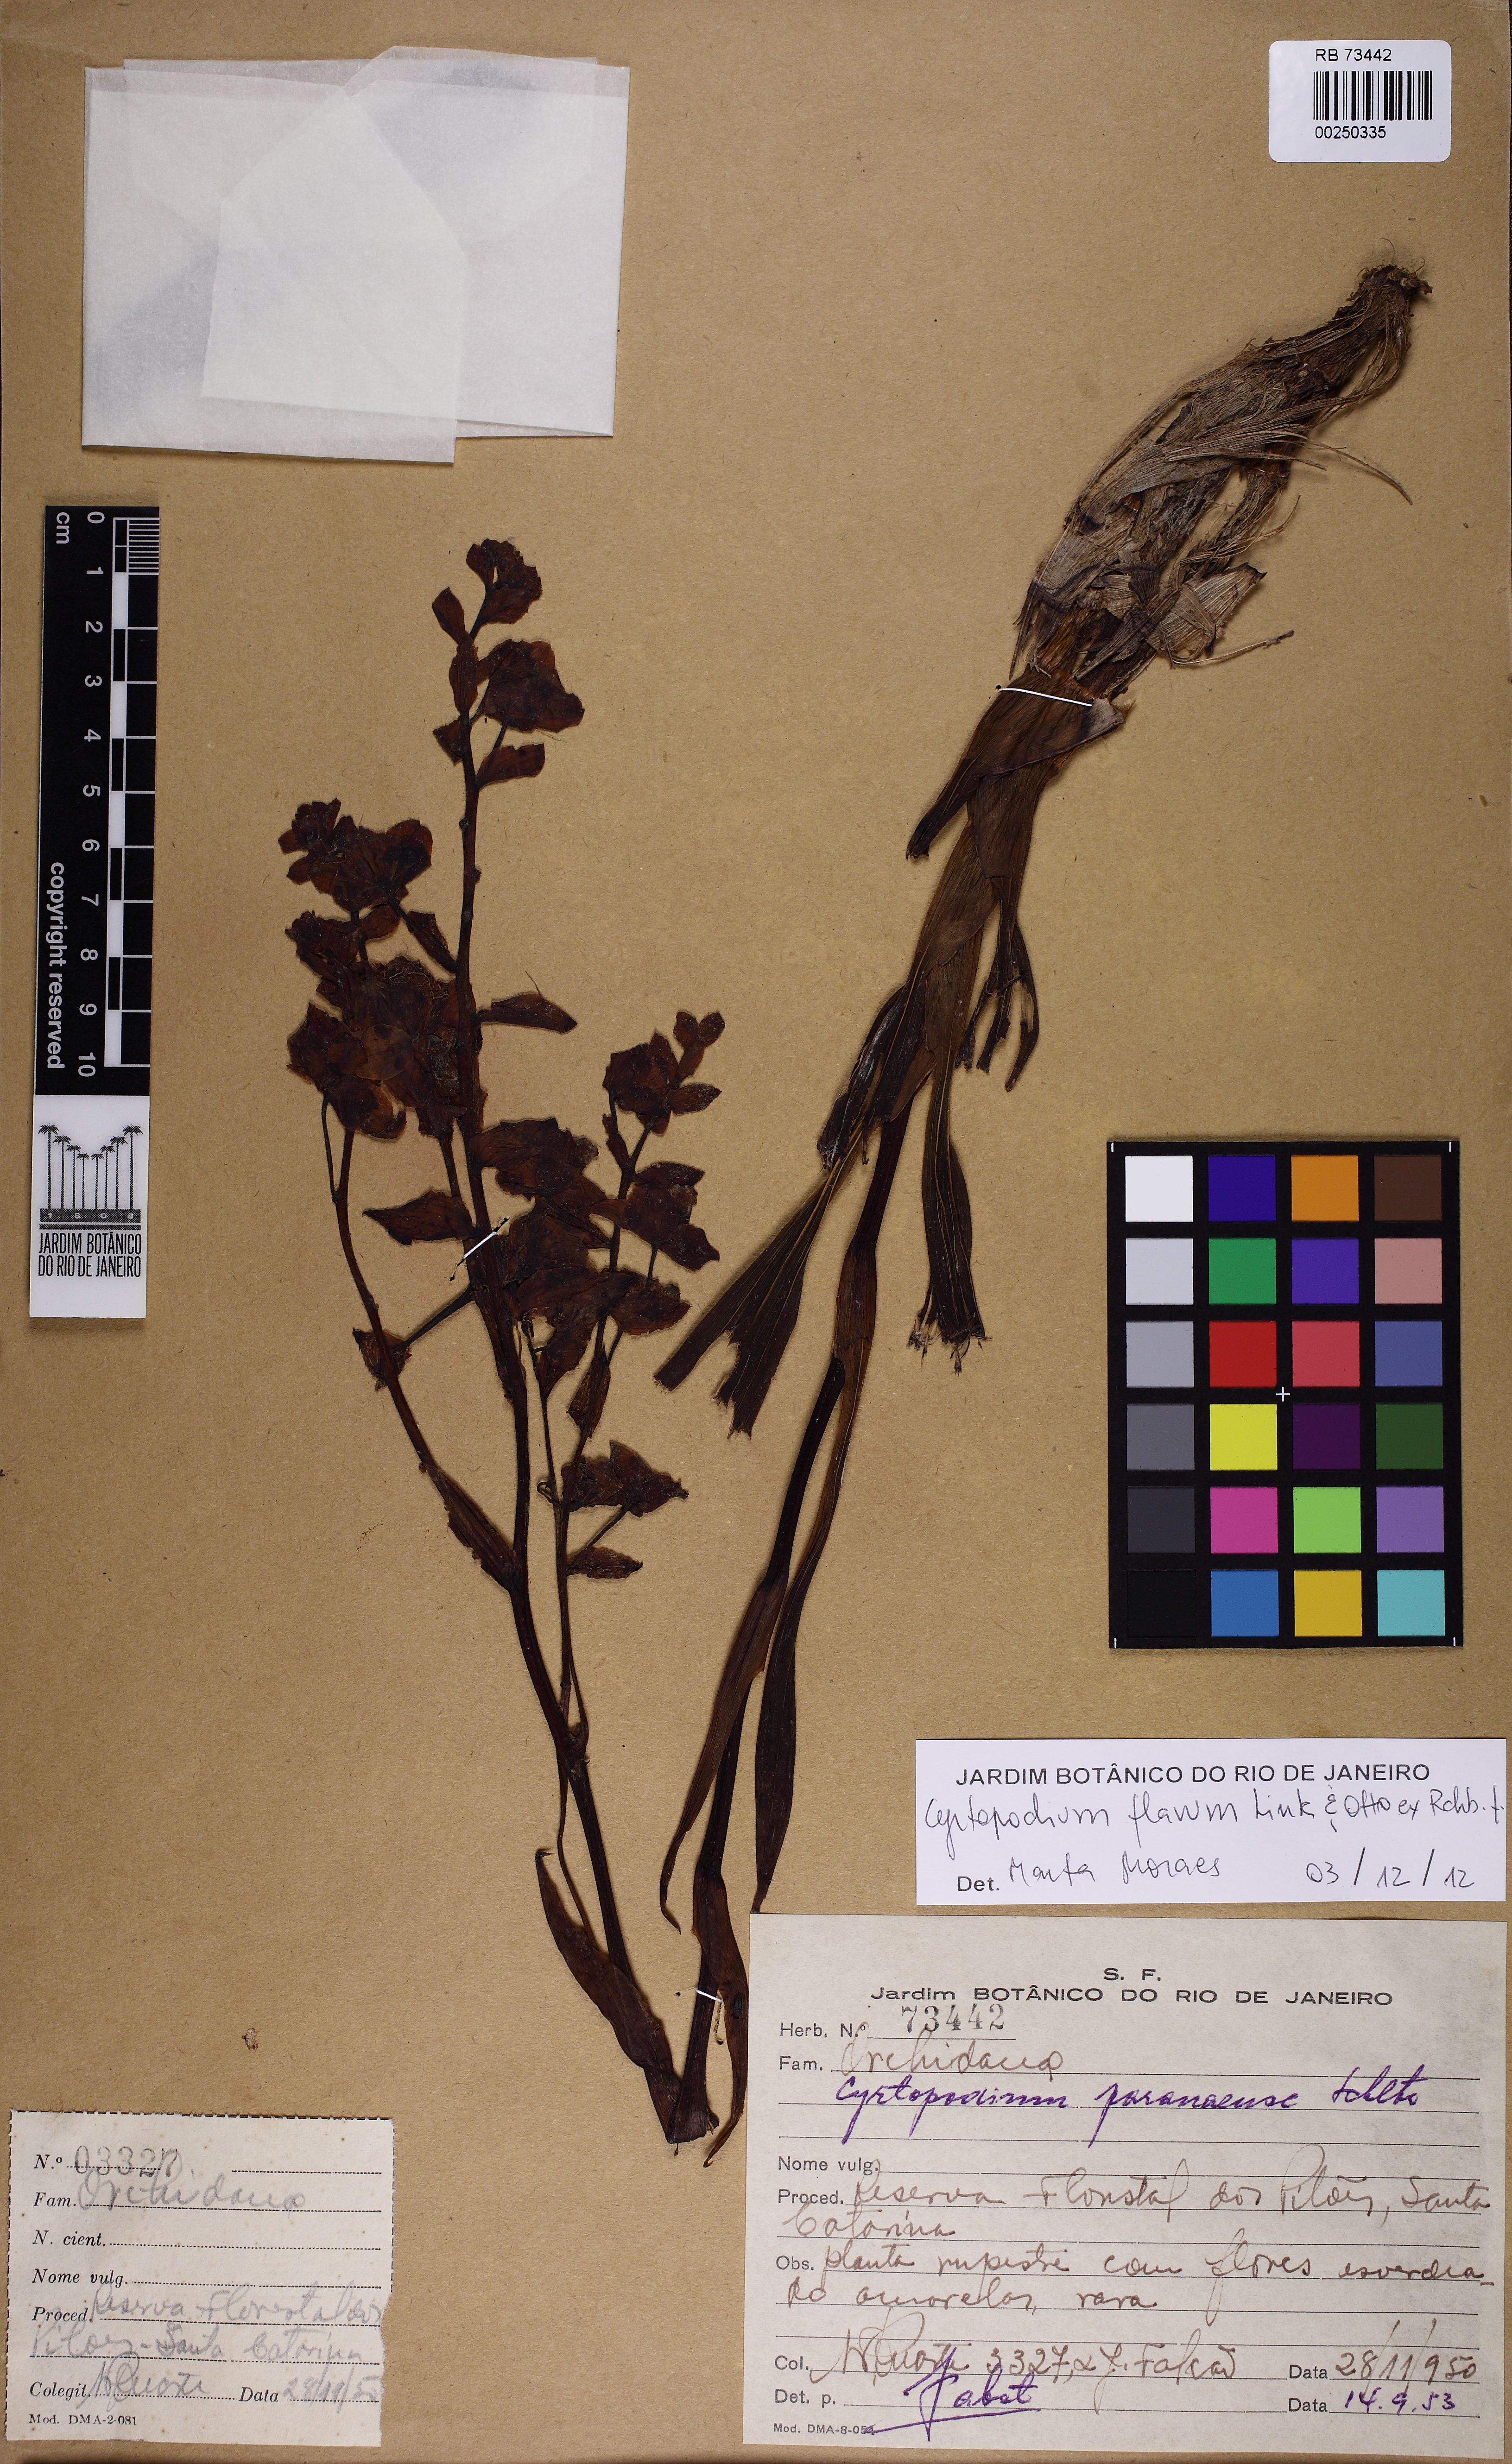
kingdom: Plantae
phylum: Tracheophyta
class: Liliopsida
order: Asparagales
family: Orchidaceae
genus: Cyrtopodium
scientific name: Cyrtopodium flavum
